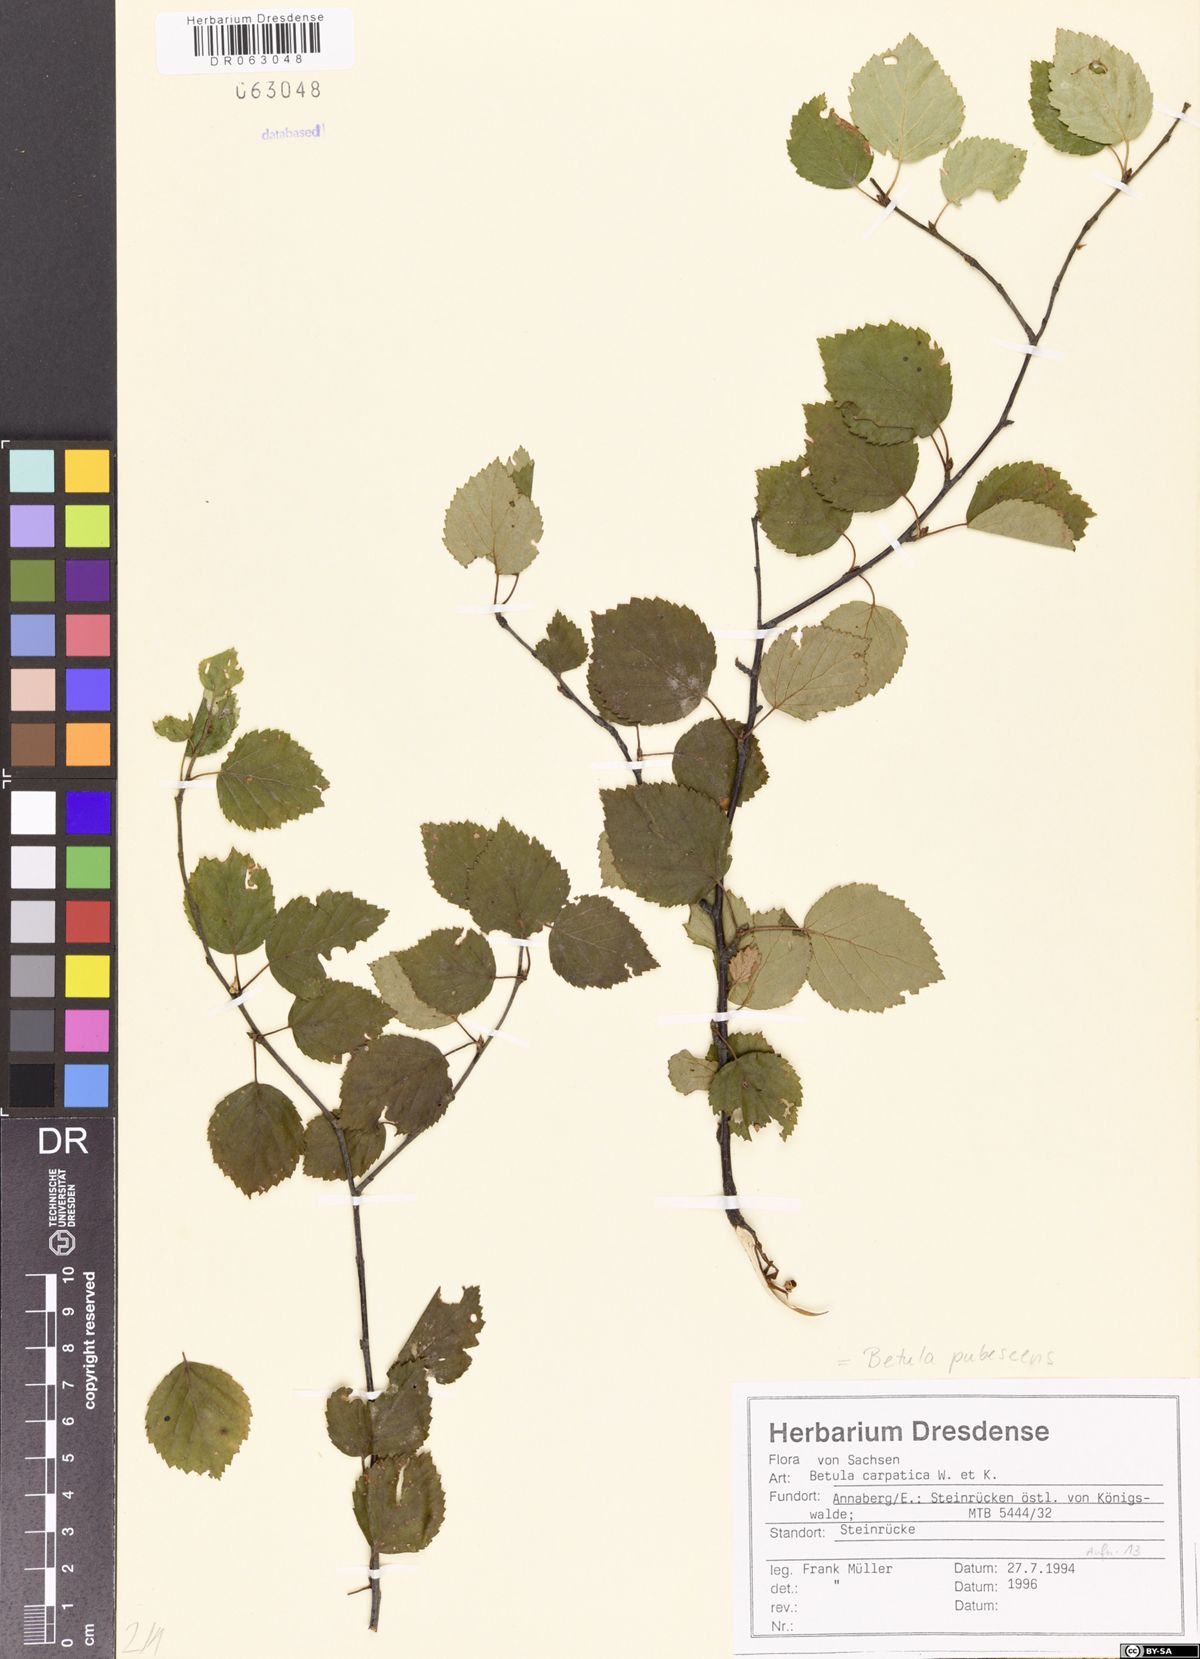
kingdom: Plantae
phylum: Tracheophyta
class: Magnoliopsida
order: Fagales
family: Betulaceae
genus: Betula
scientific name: Betula pubescens
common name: Downy birch
